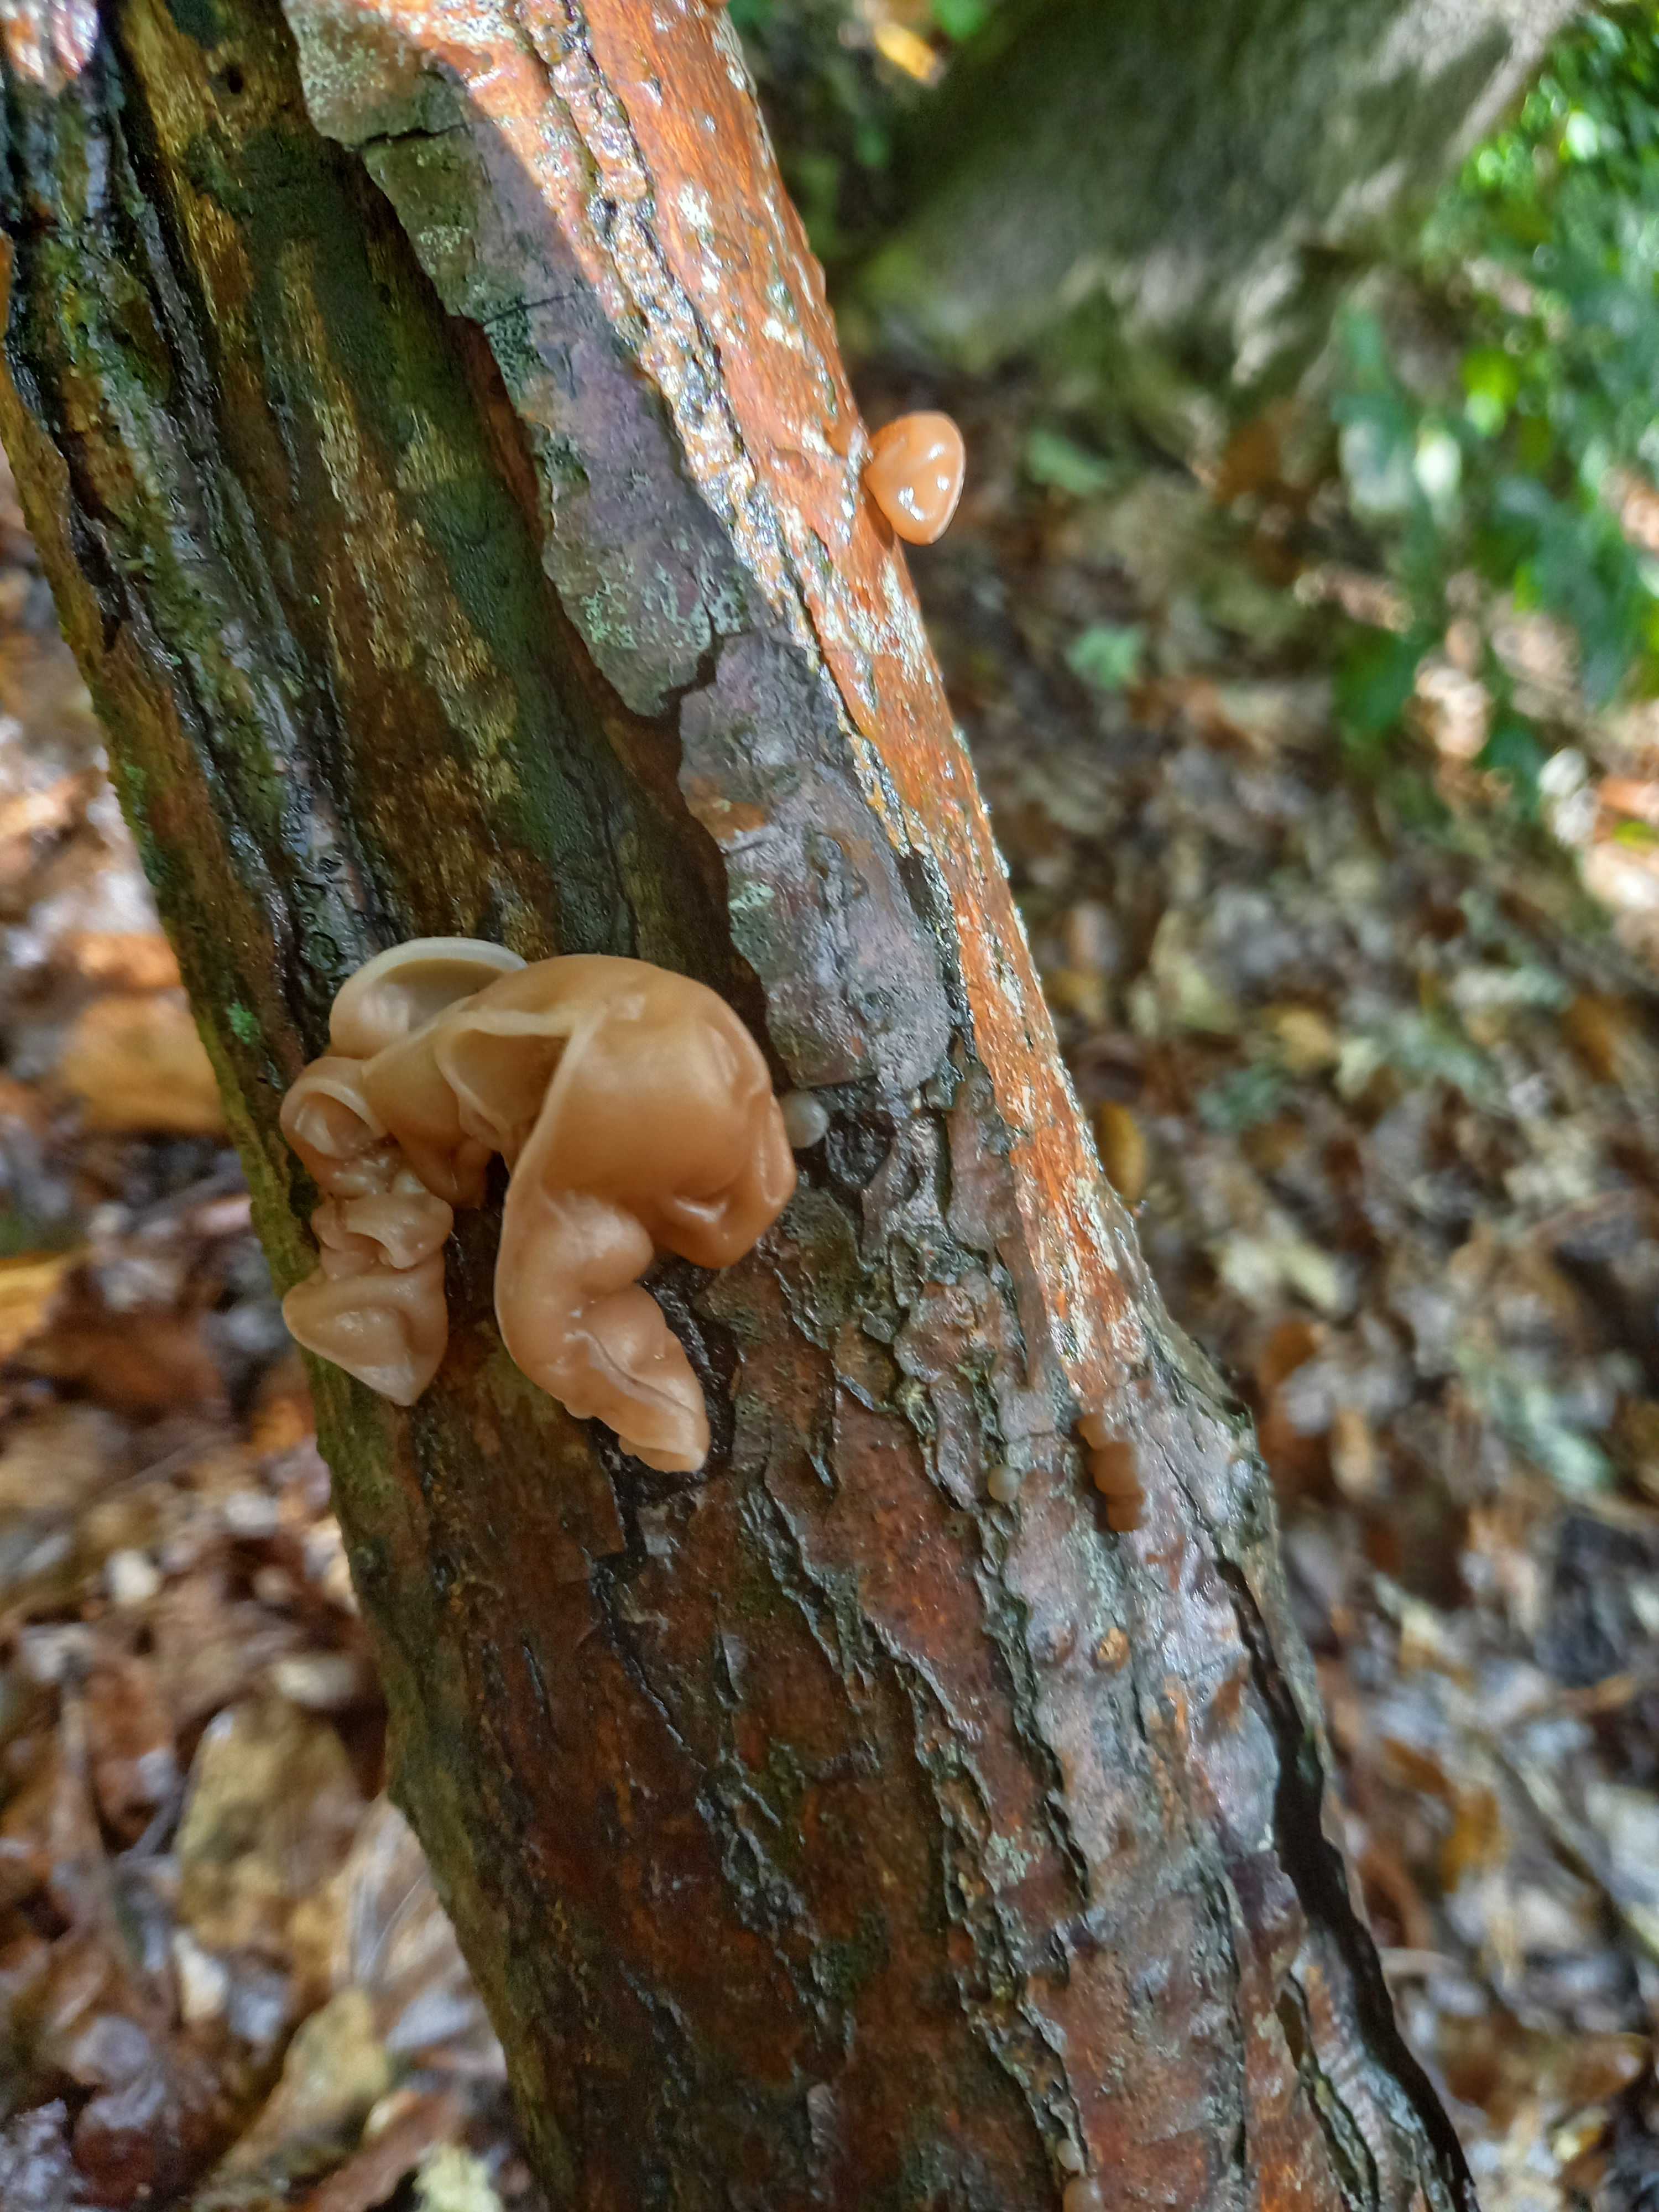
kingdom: Fungi
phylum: Basidiomycota
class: Agaricomycetes
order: Auriculariales
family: Auriculariaceae
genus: Auricularia
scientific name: Auricularia auricula-judae
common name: almindelig judasøre
